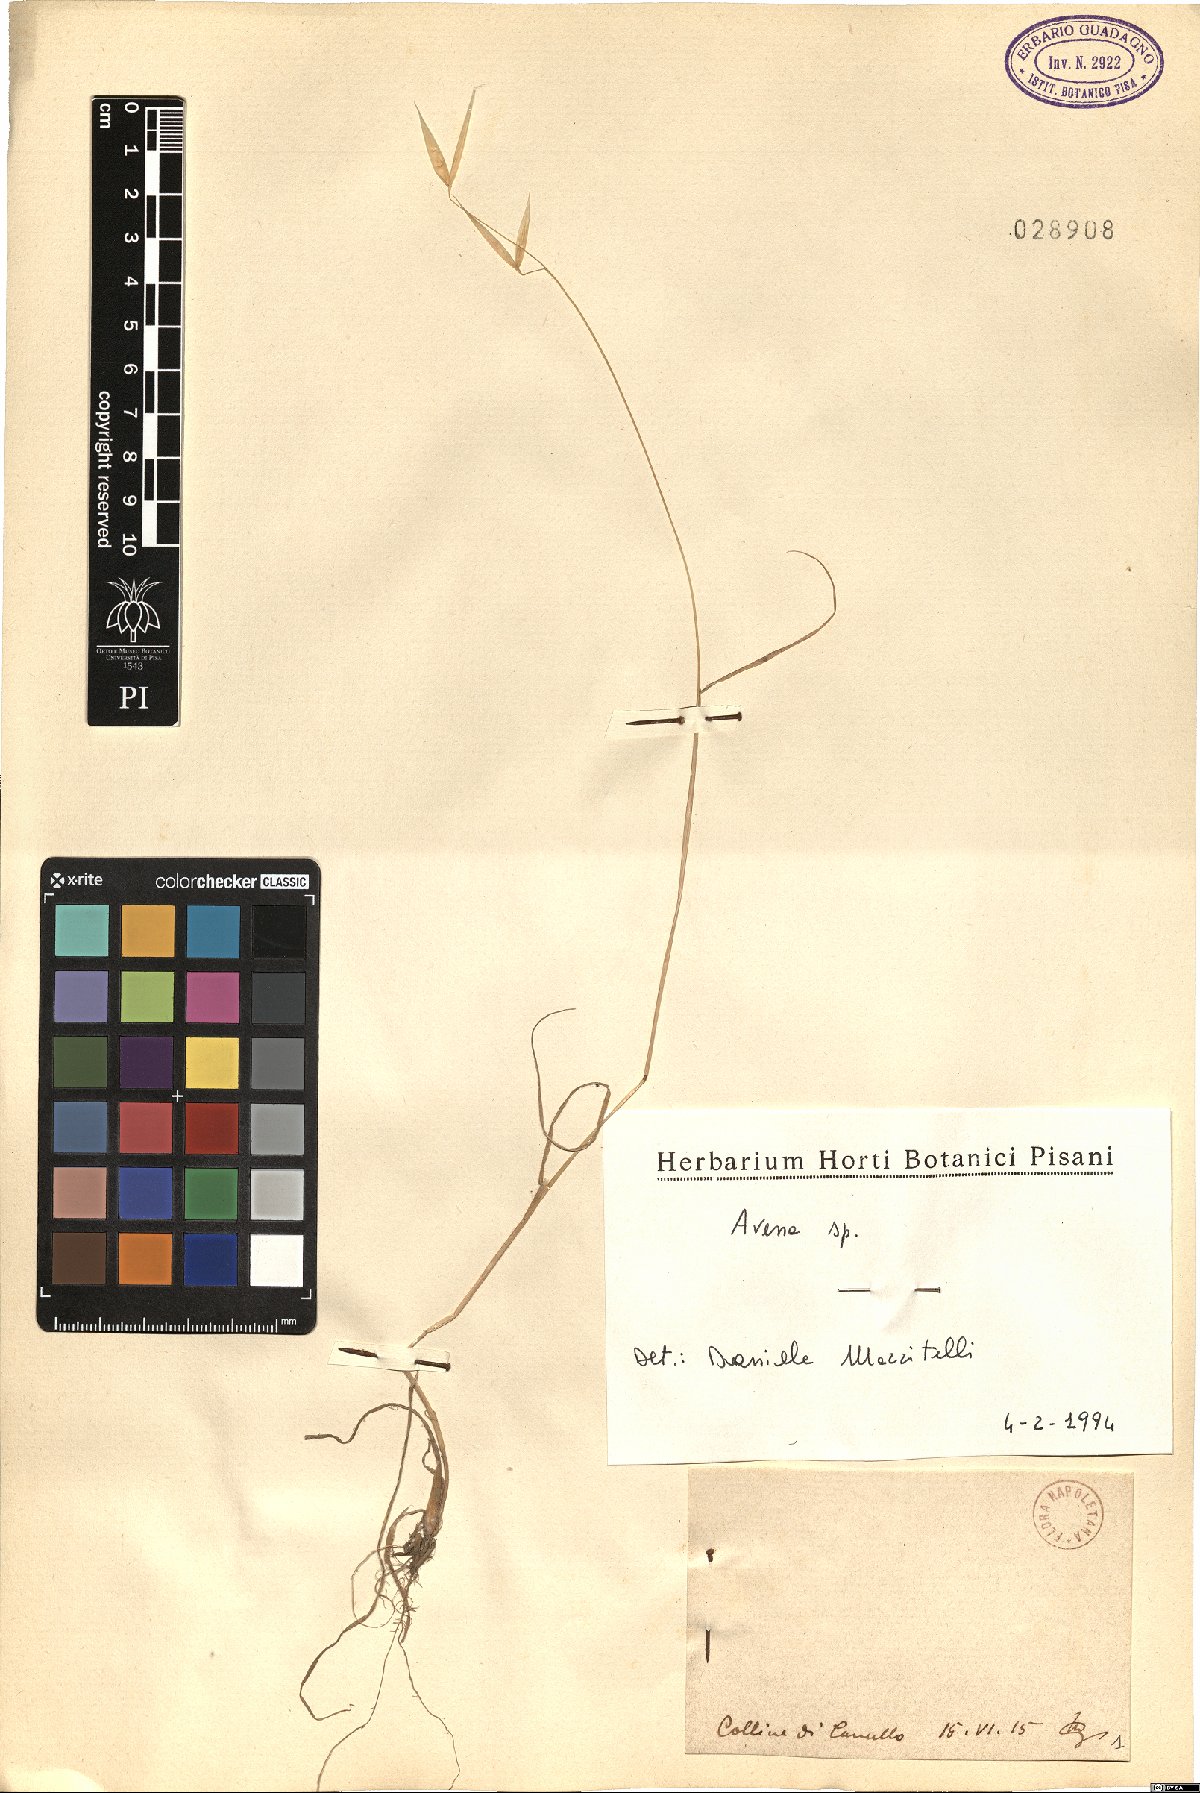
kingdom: Plantae
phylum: Tracheophyta
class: Liliopsida
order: Poales
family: Poaceae
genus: Avena
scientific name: Avena
